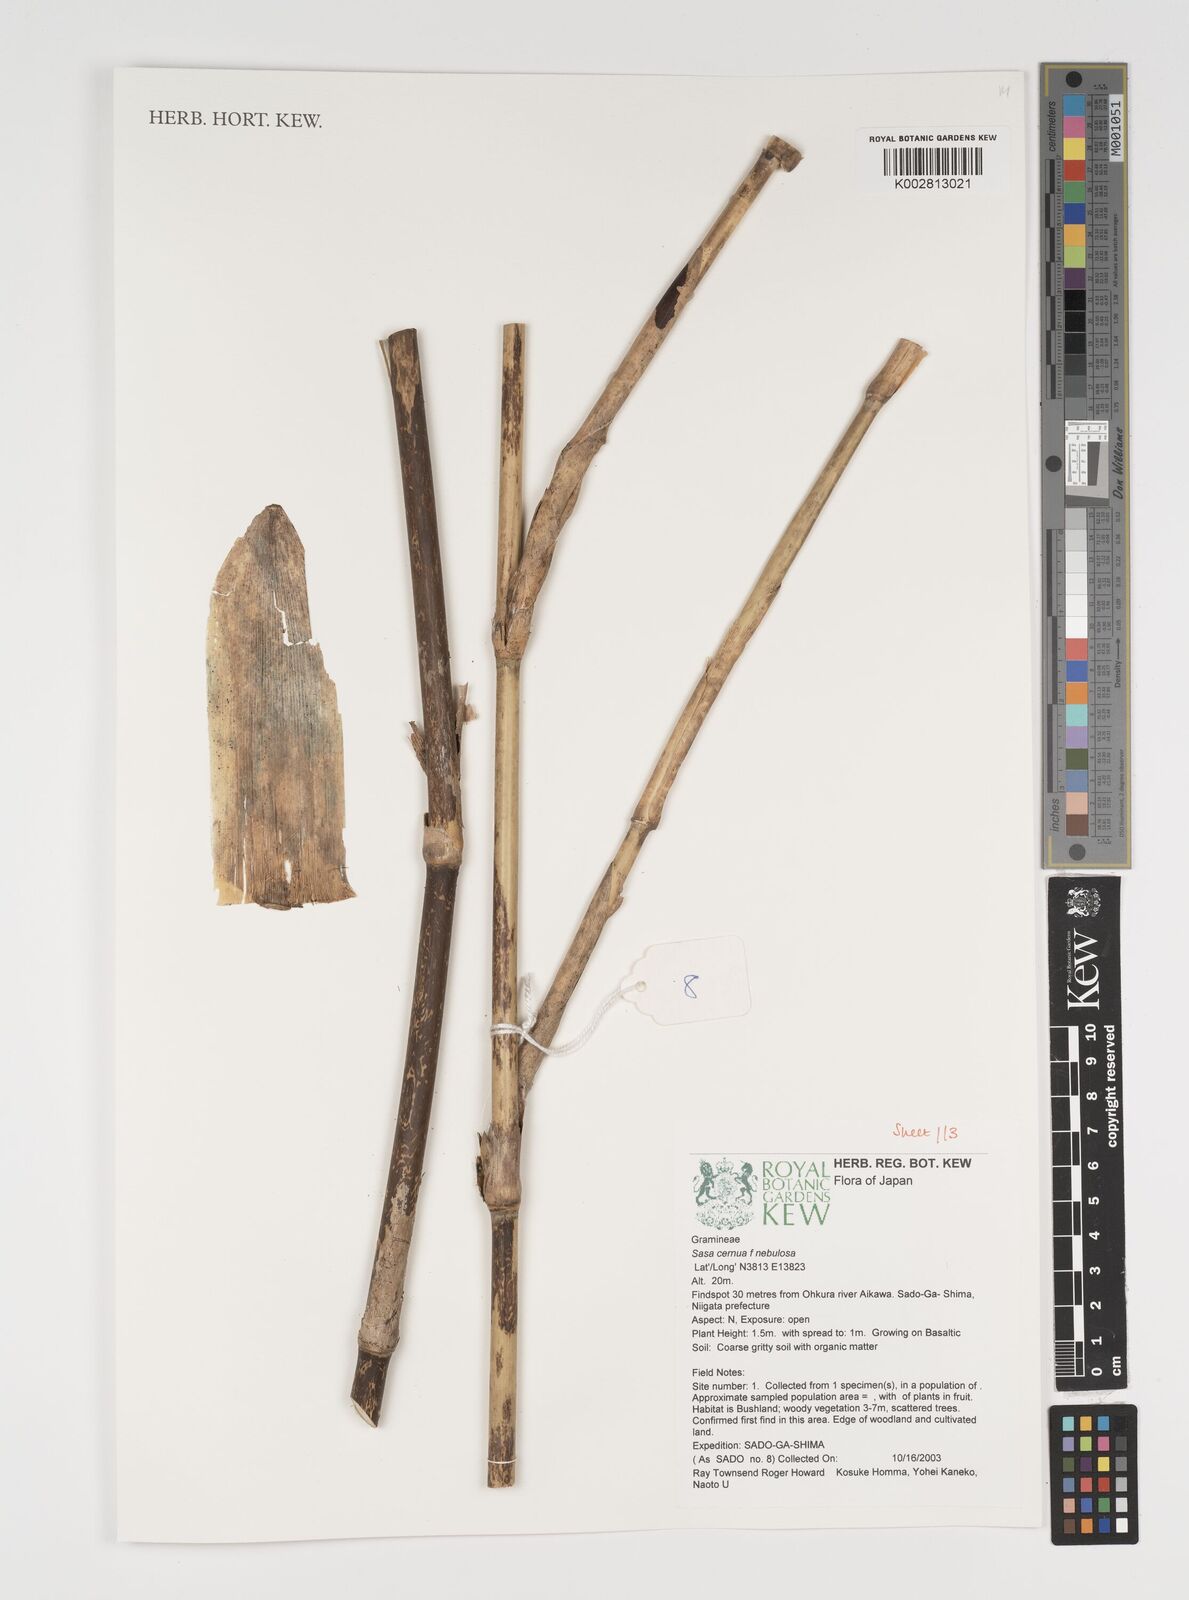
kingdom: Plantae
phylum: Tracheophyta
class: Liliopsida
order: Poales
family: Poaceae
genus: Sasa
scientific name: Sasa cernua
